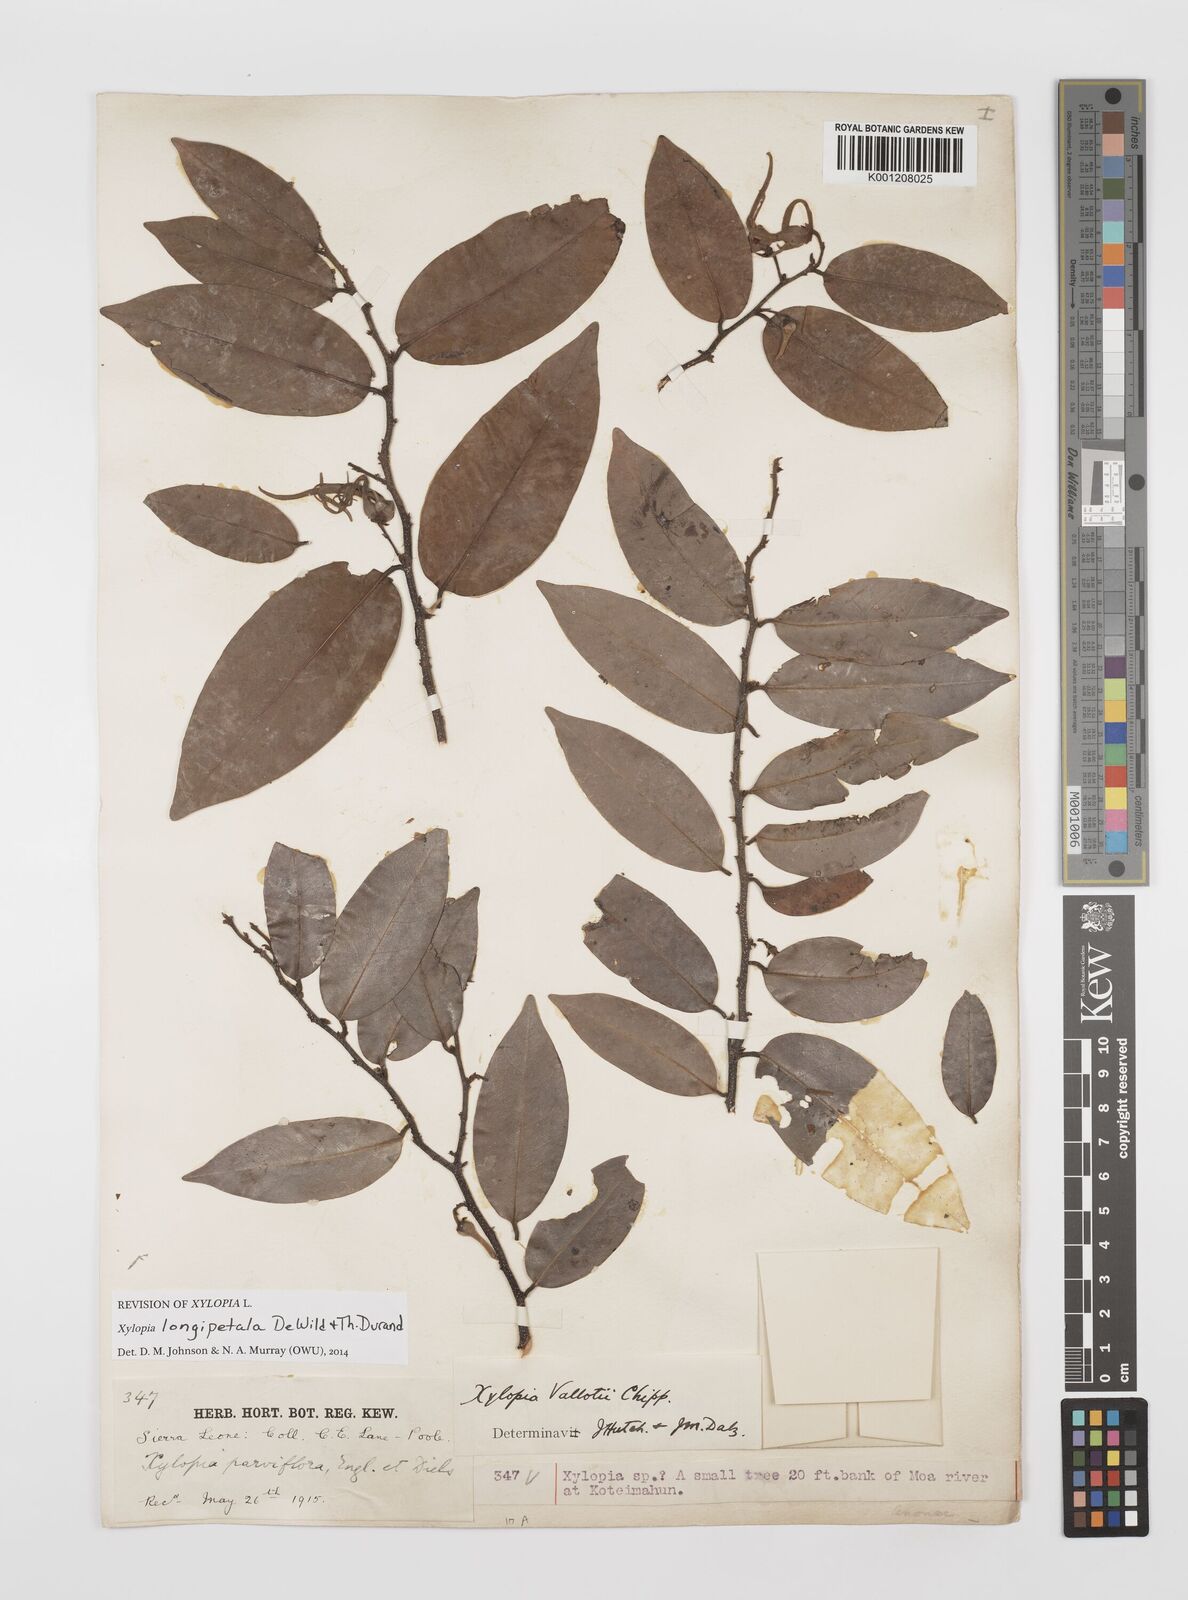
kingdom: Plantae
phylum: Tracheophyta
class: Magnoliopsida
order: Magnoliales
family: Annonaceae
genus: Xylopia
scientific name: Xylopia parviflora
